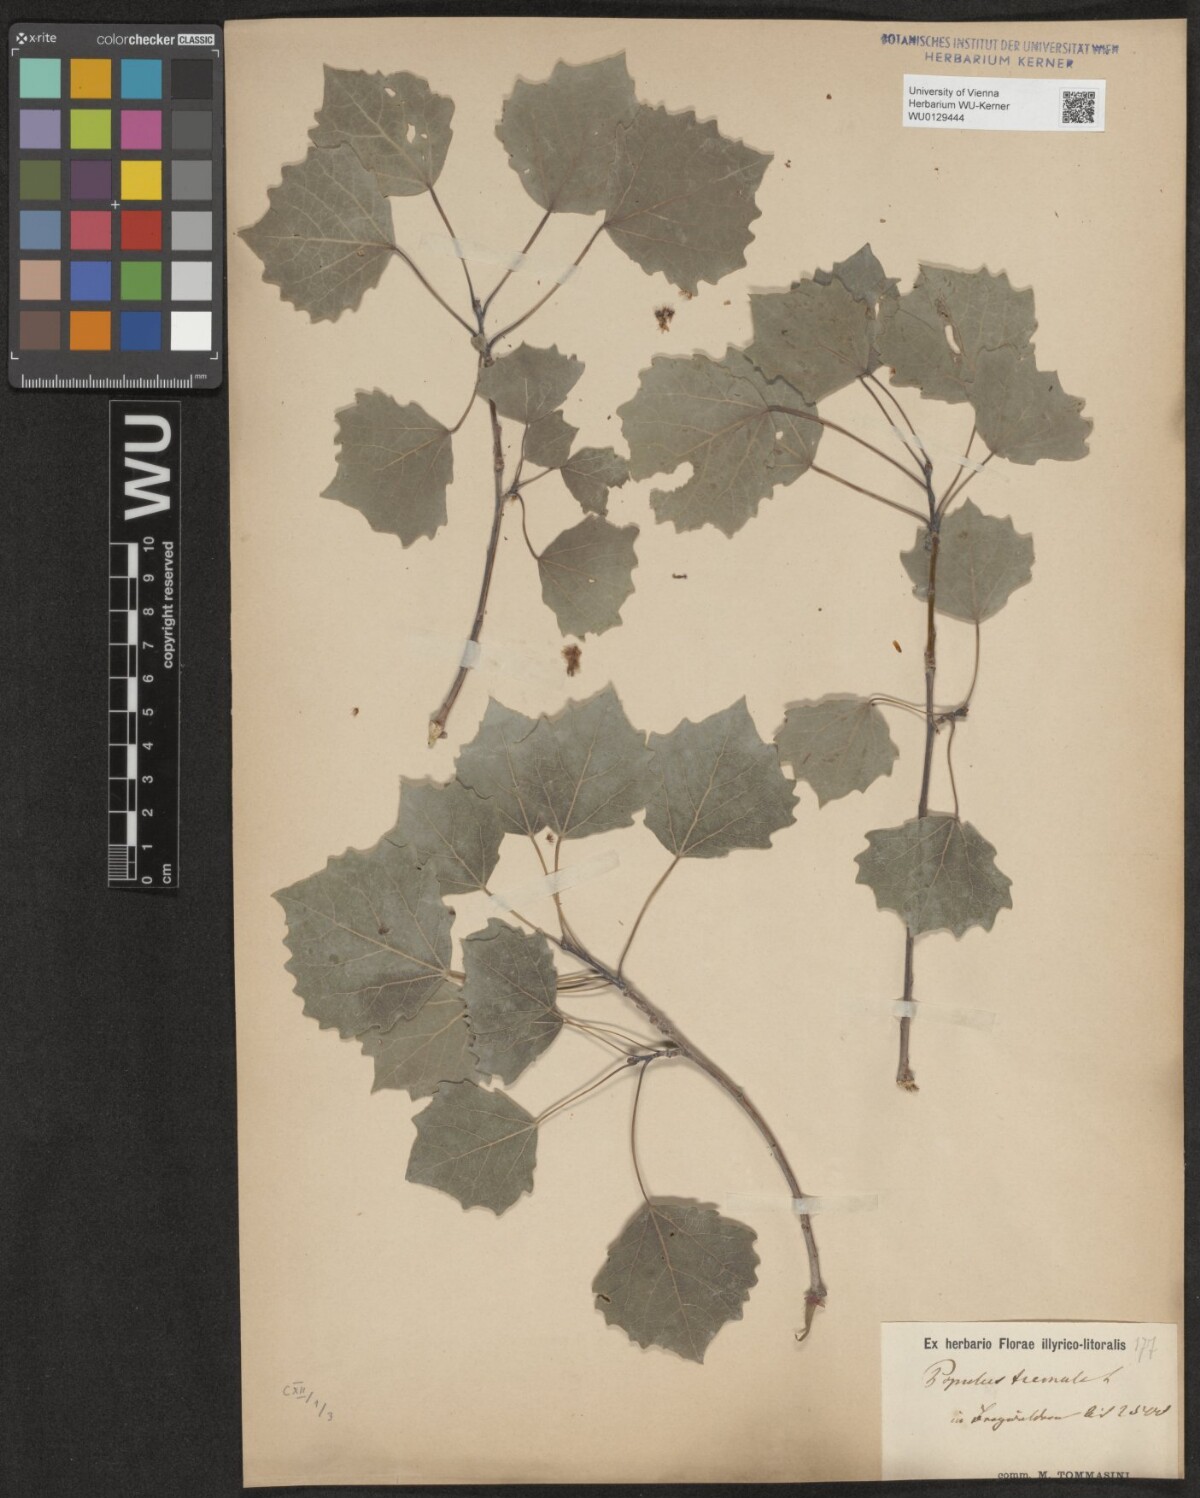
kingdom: Plantae
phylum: Tracheophyta
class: Magnoliopsida
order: Malpighiales
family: Salicaceae
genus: Populus
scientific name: Populus tremula
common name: European aspen
